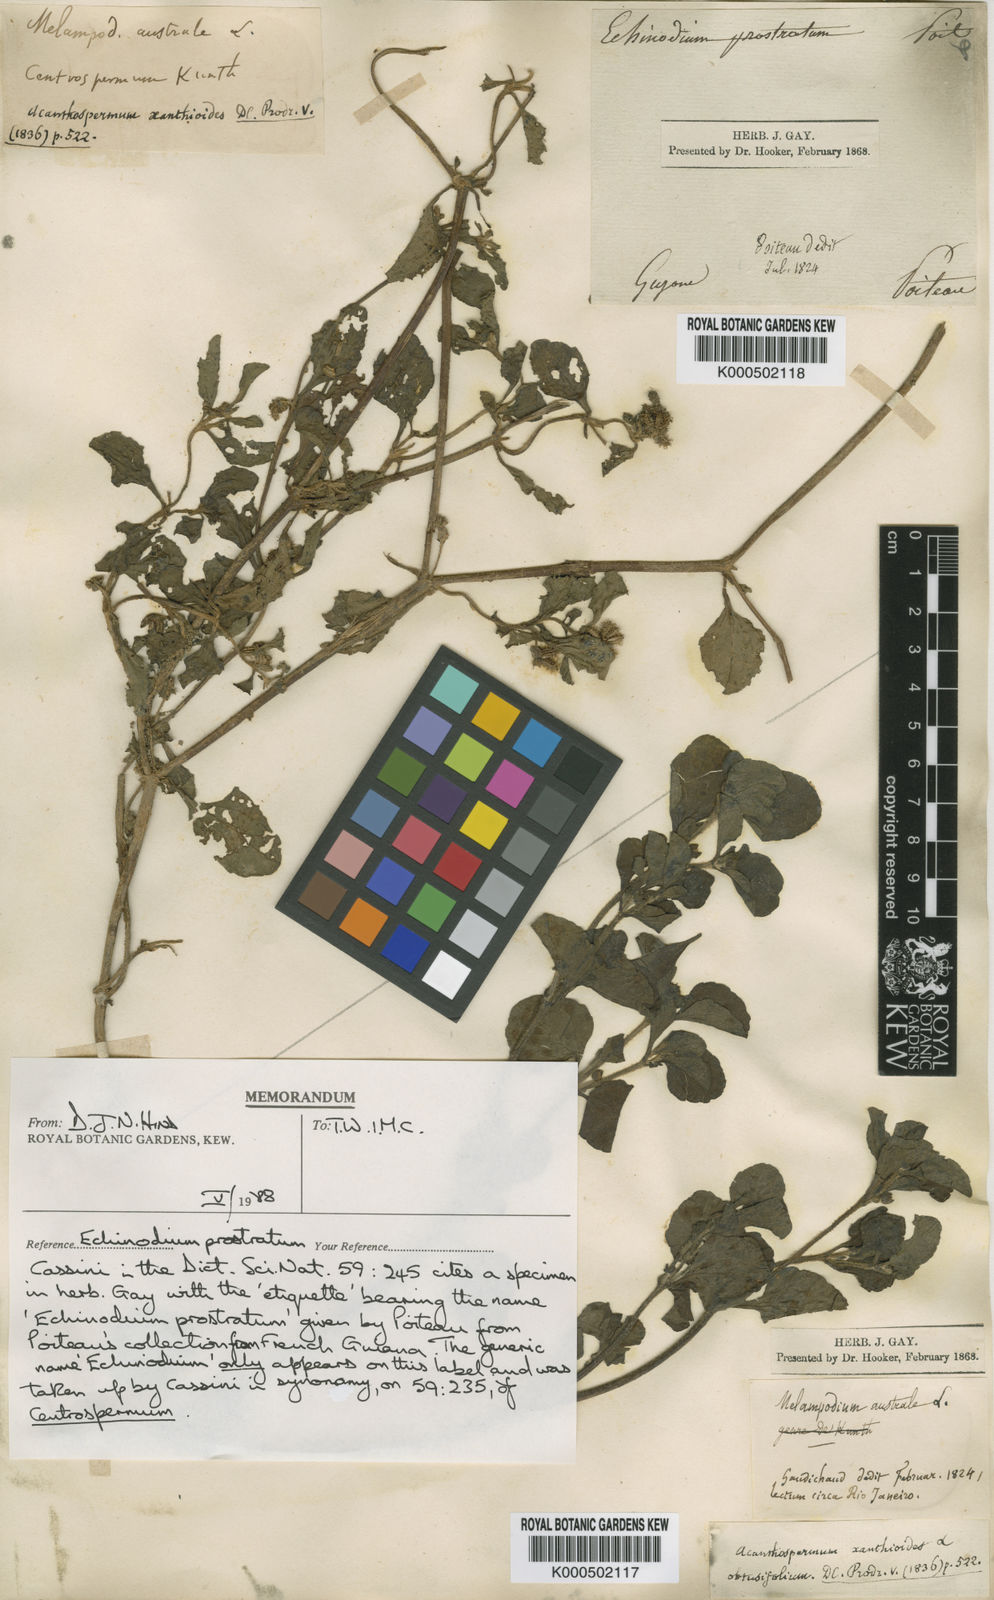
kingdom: Plantae
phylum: Tracheophyta
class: Magnoliopsida
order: Asterales
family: Asteraceae
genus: Acanthospermum
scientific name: Acanthospermum australe
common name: Paraguayan starbur
